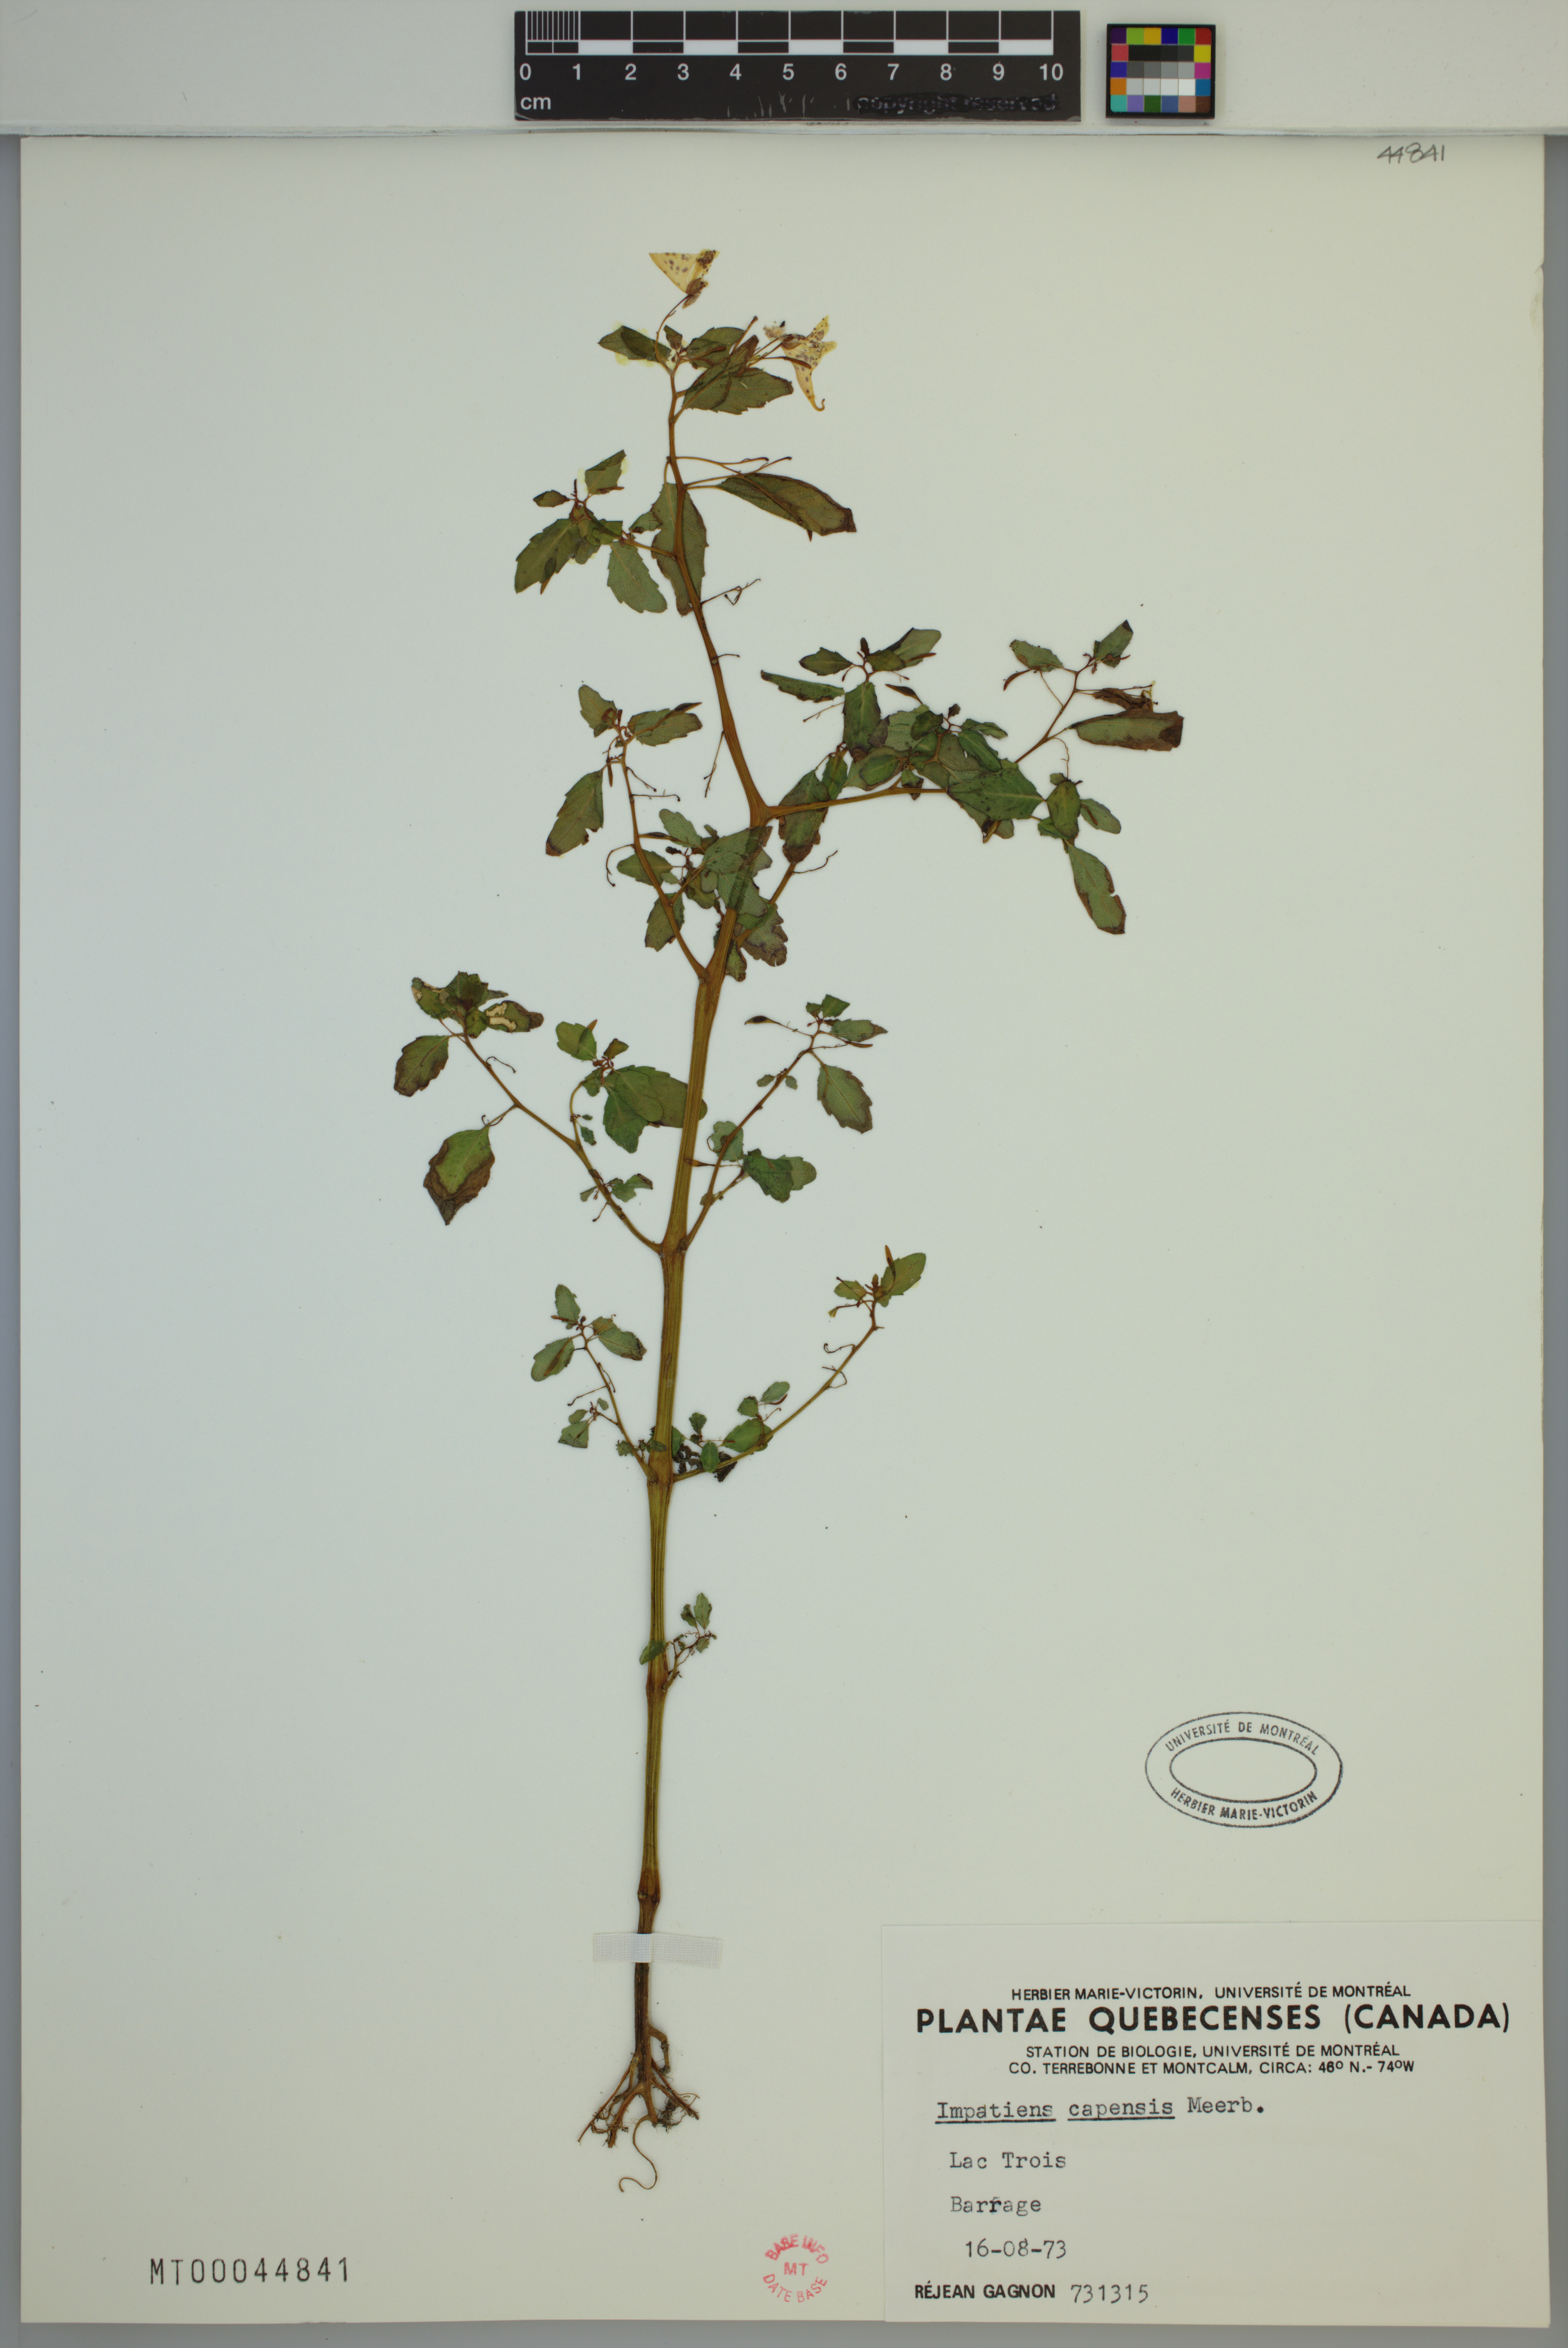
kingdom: Plantae
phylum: Tracheophyta
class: Magnoliopsida
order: Ericales
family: Balsaminaceae
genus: Impatiens
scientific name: Impatiens capensis
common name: Orange balsam
